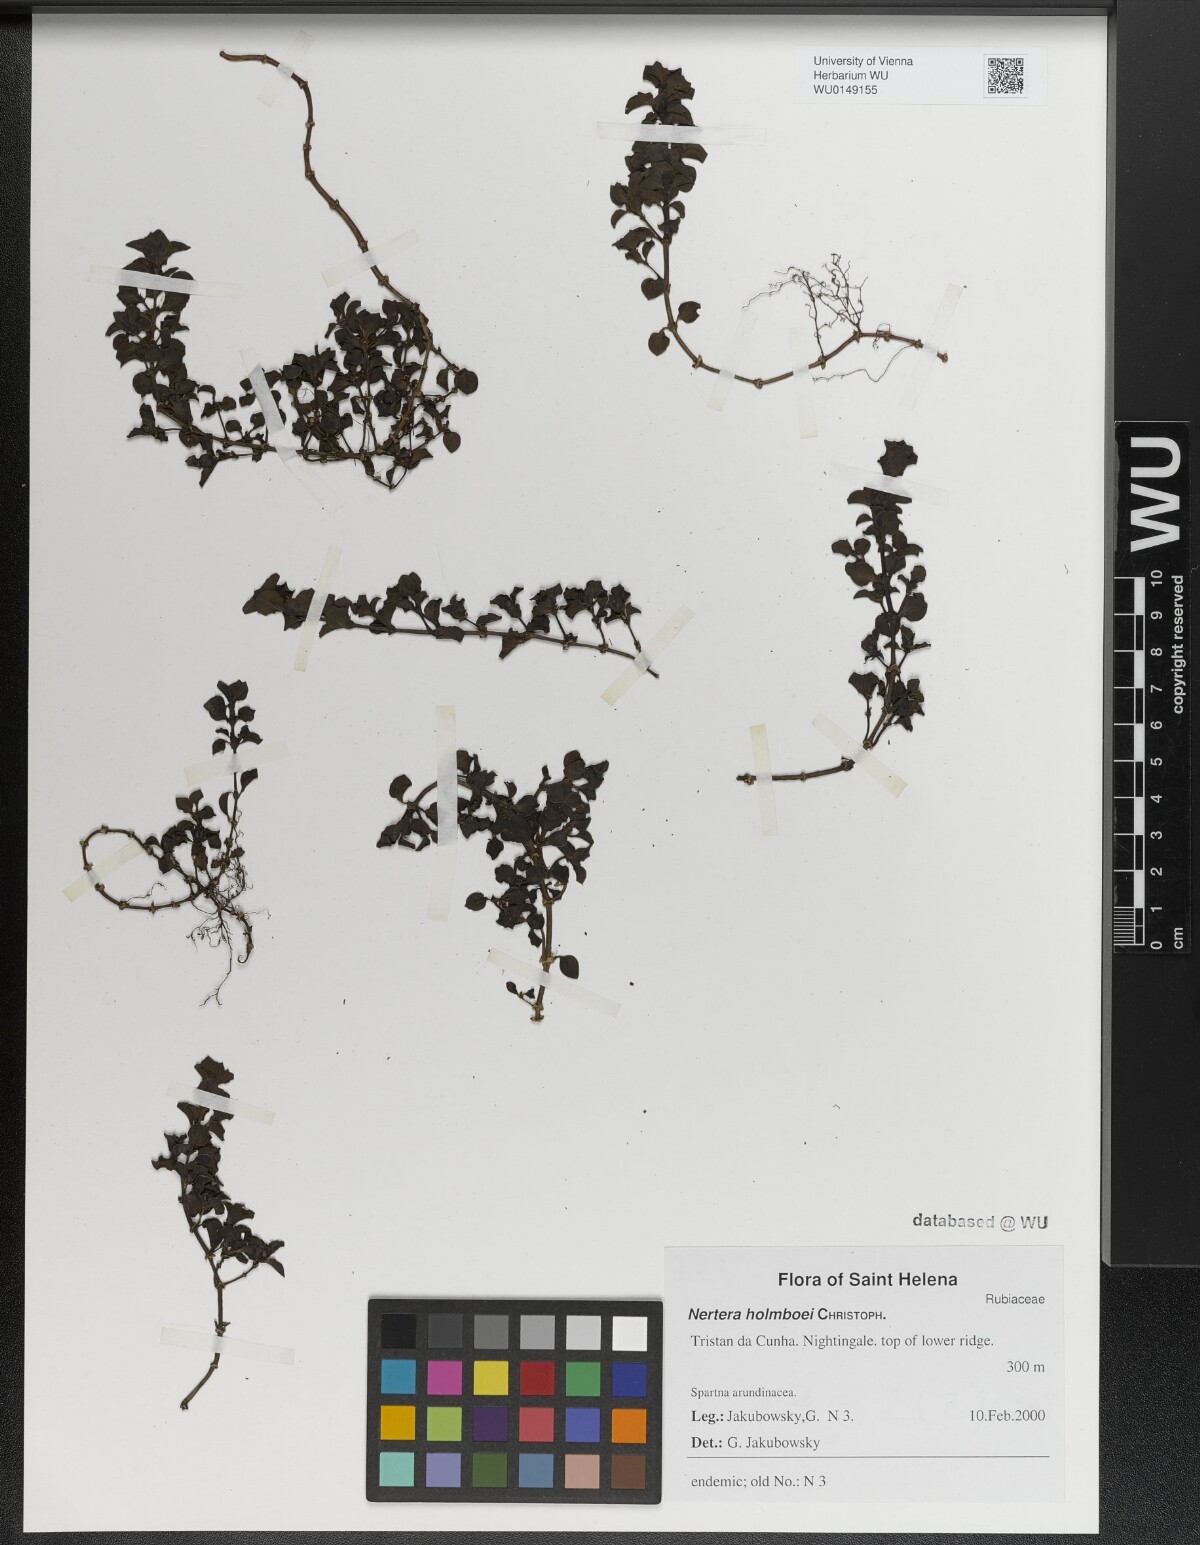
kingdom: Plantae
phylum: Tracheophyta
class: Magnoliopsida
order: Gentianales
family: Rubiaceae
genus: Nertera
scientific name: Nertera holmboei
